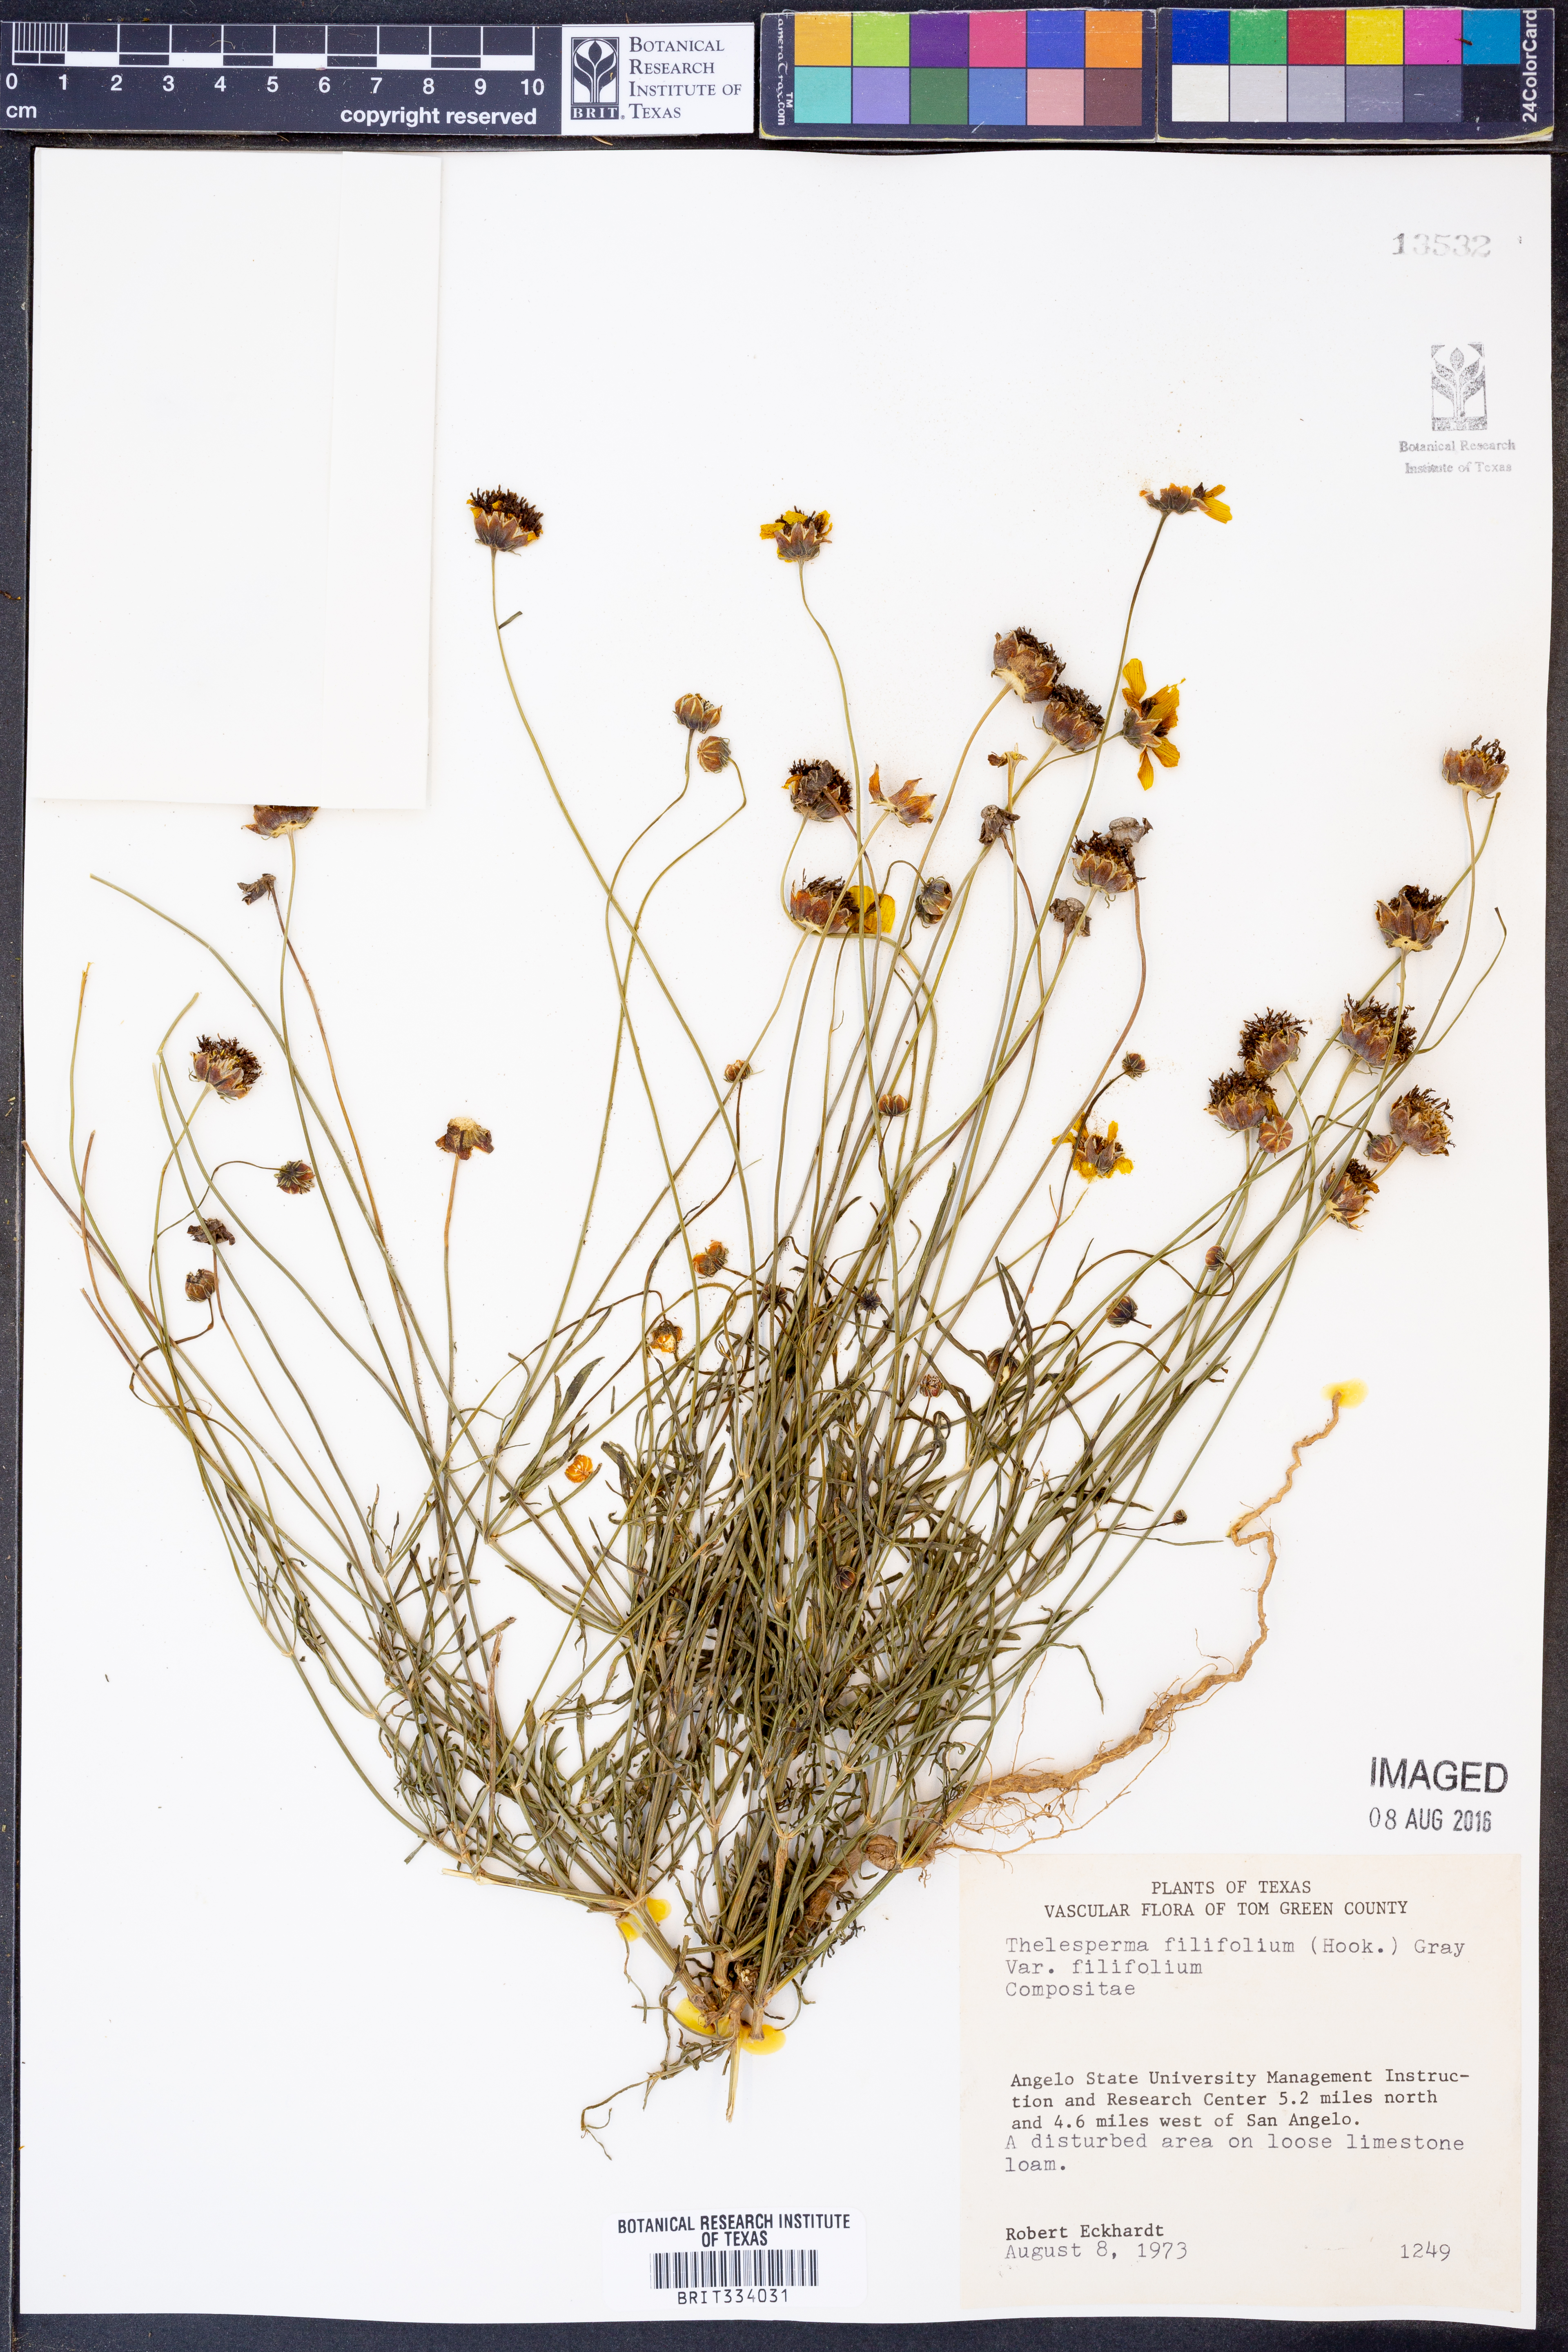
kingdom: Plantae
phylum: Tracheophyta
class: Magnoliopsida
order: Asterales
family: Asteraceae
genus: Thelesperma
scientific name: Thelesperma filifolium
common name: Stiff greenthread
